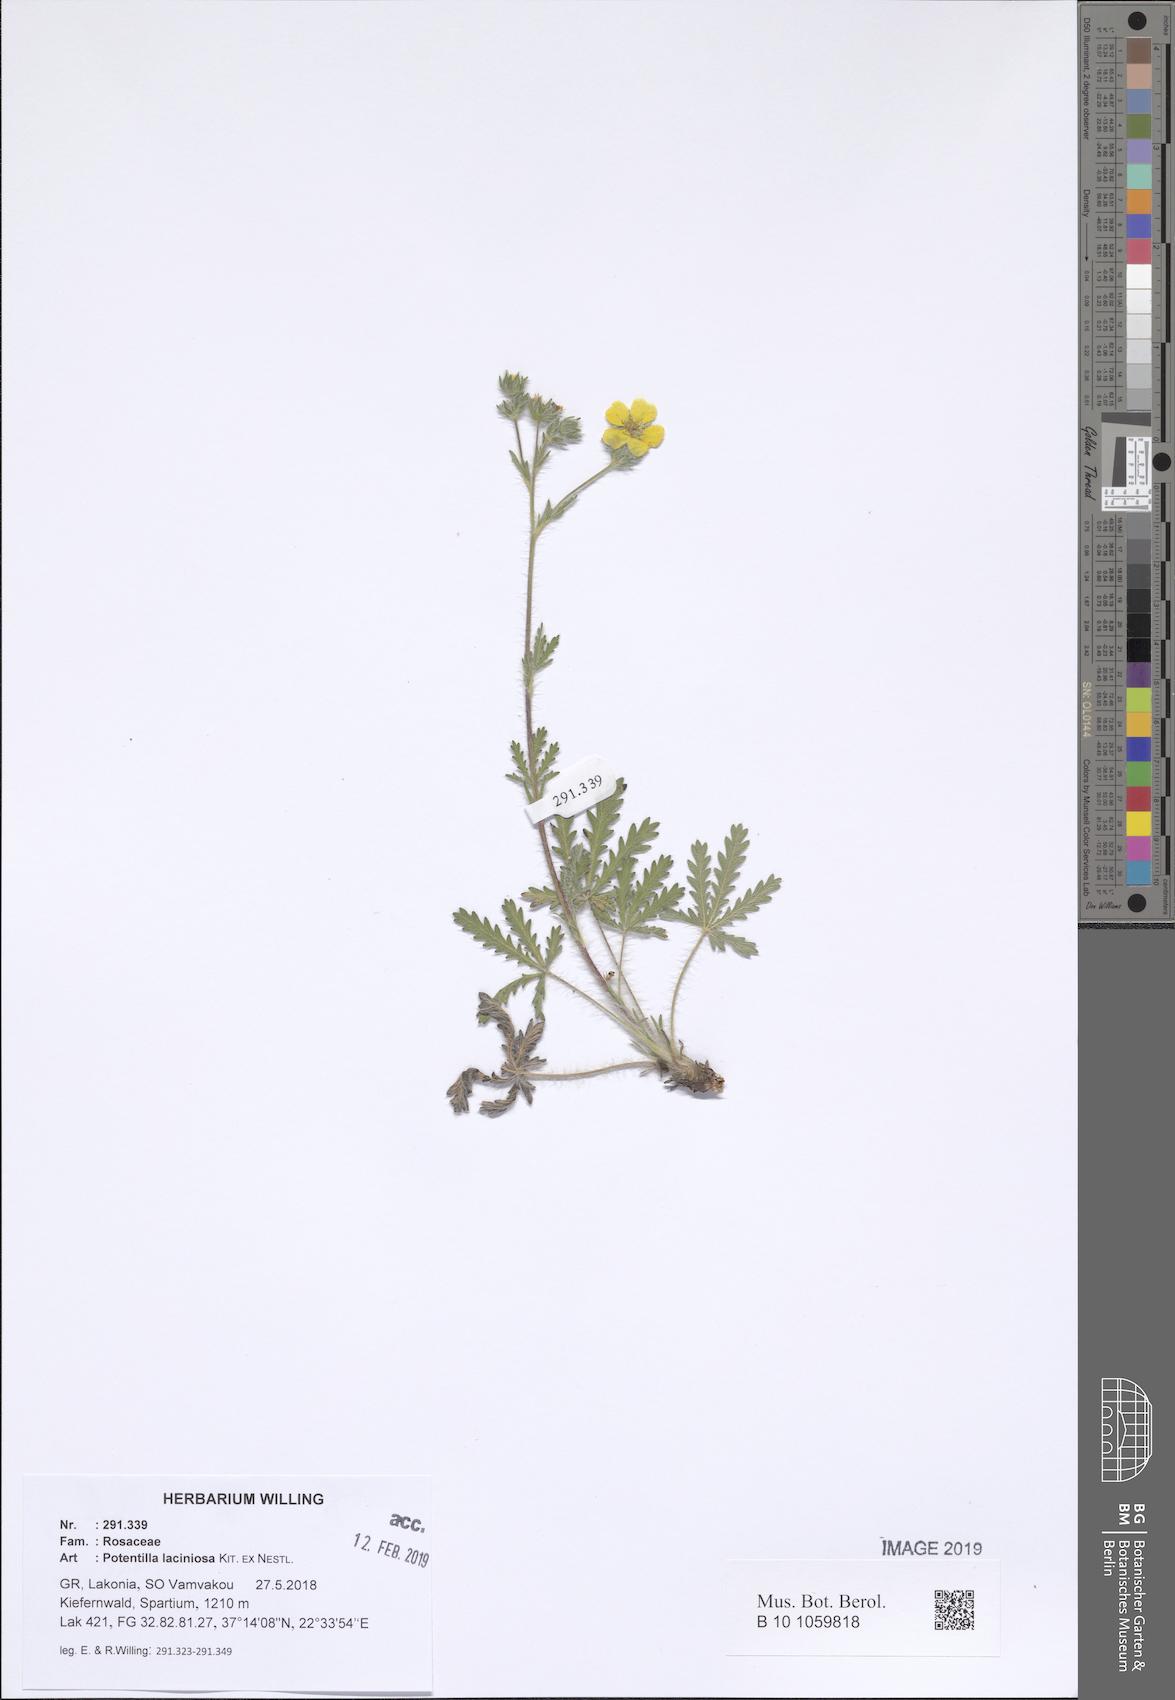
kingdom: Plantae
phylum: Tracheophyta
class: Magnoliopsida
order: Rosales
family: Rosaceae
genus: Potentilla
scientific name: Potentilla recta
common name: Sulphur cinquefoil
